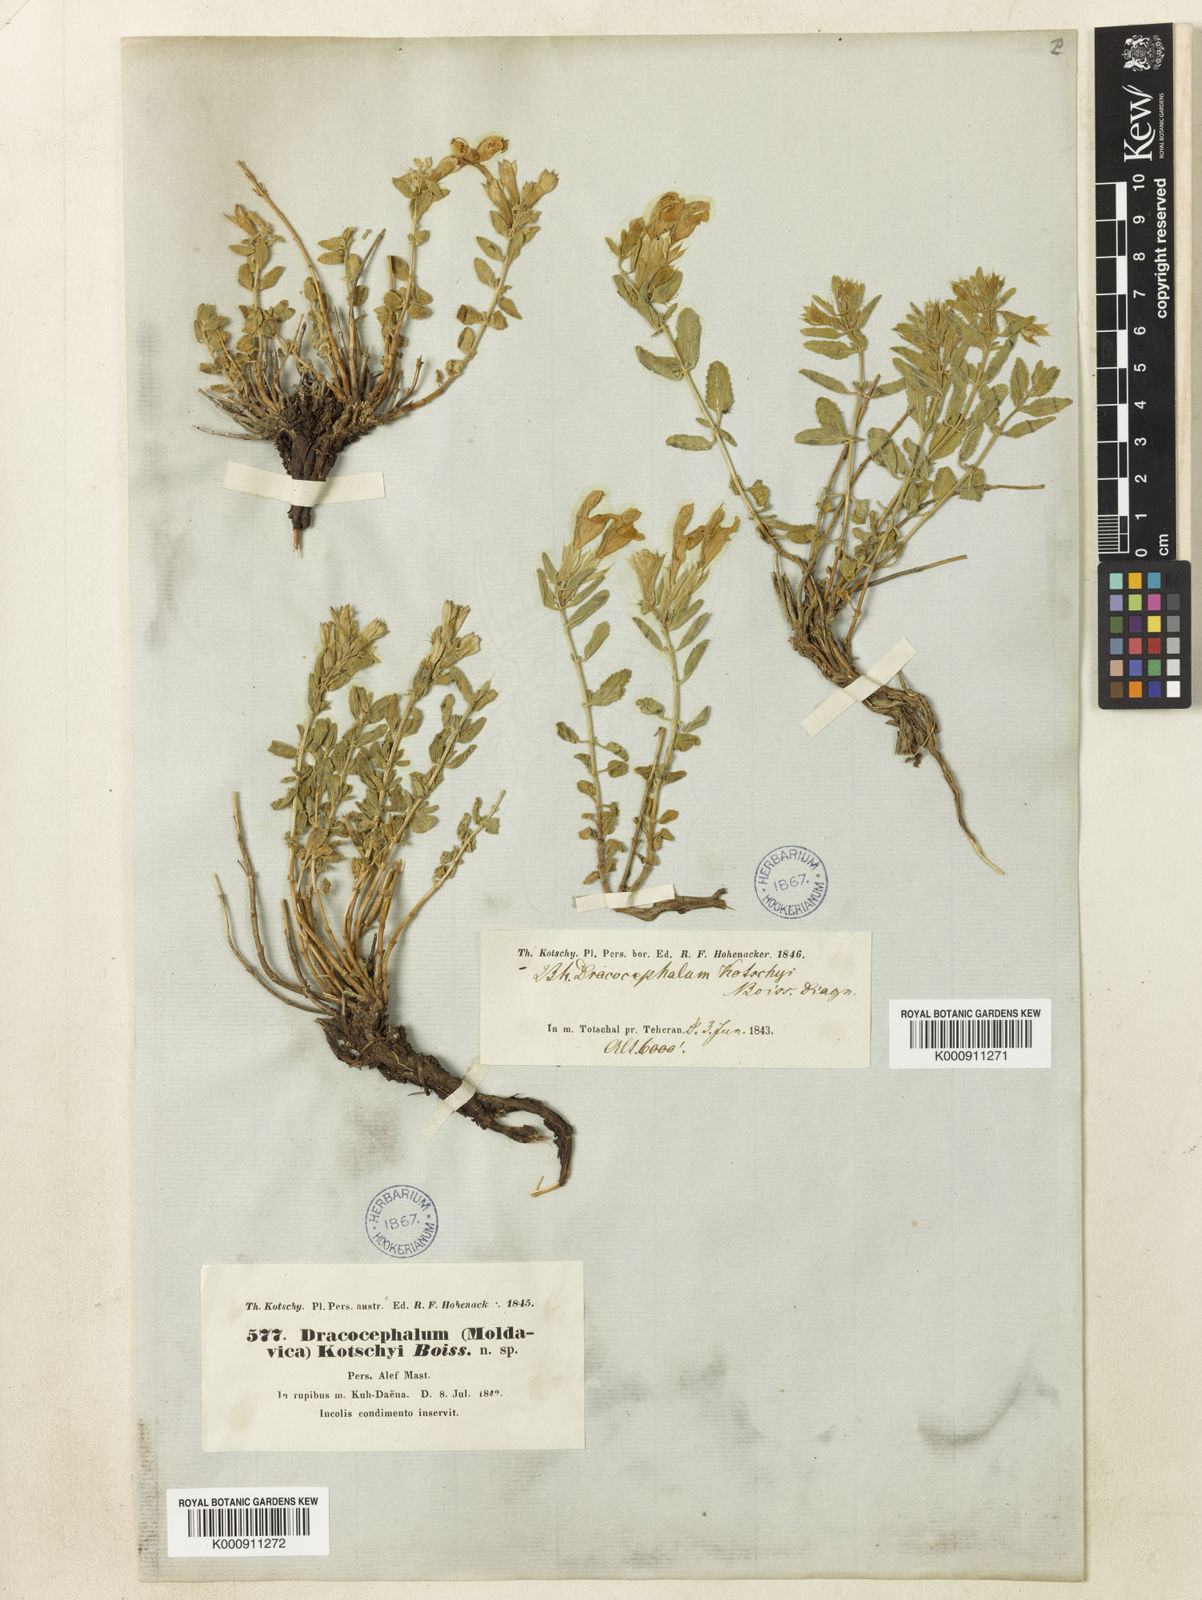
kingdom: Plantae
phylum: Tracheophyta
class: Magnoliopsida
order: Lamiales
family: Lamiaceae
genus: Dracocephalum
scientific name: Dracocephalum kotschyi
